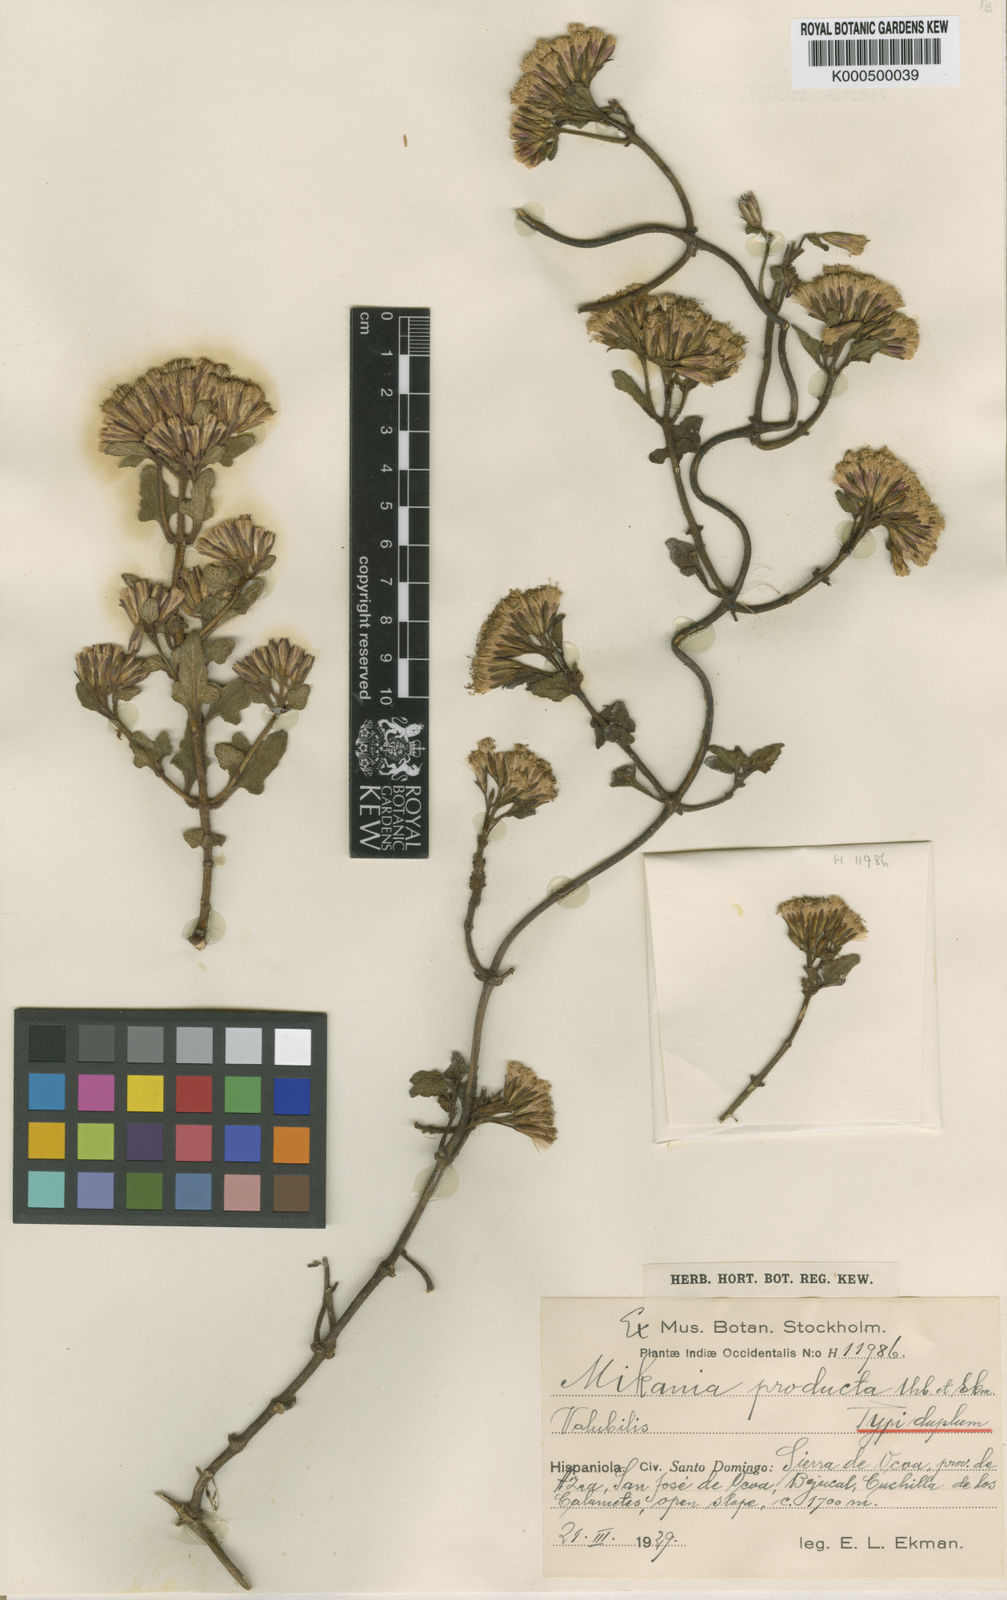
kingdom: Plantae
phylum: Tracheophyta
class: Magnoliopsida
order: Asterales
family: Asteraceae
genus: Mikania
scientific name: Mikania producta
